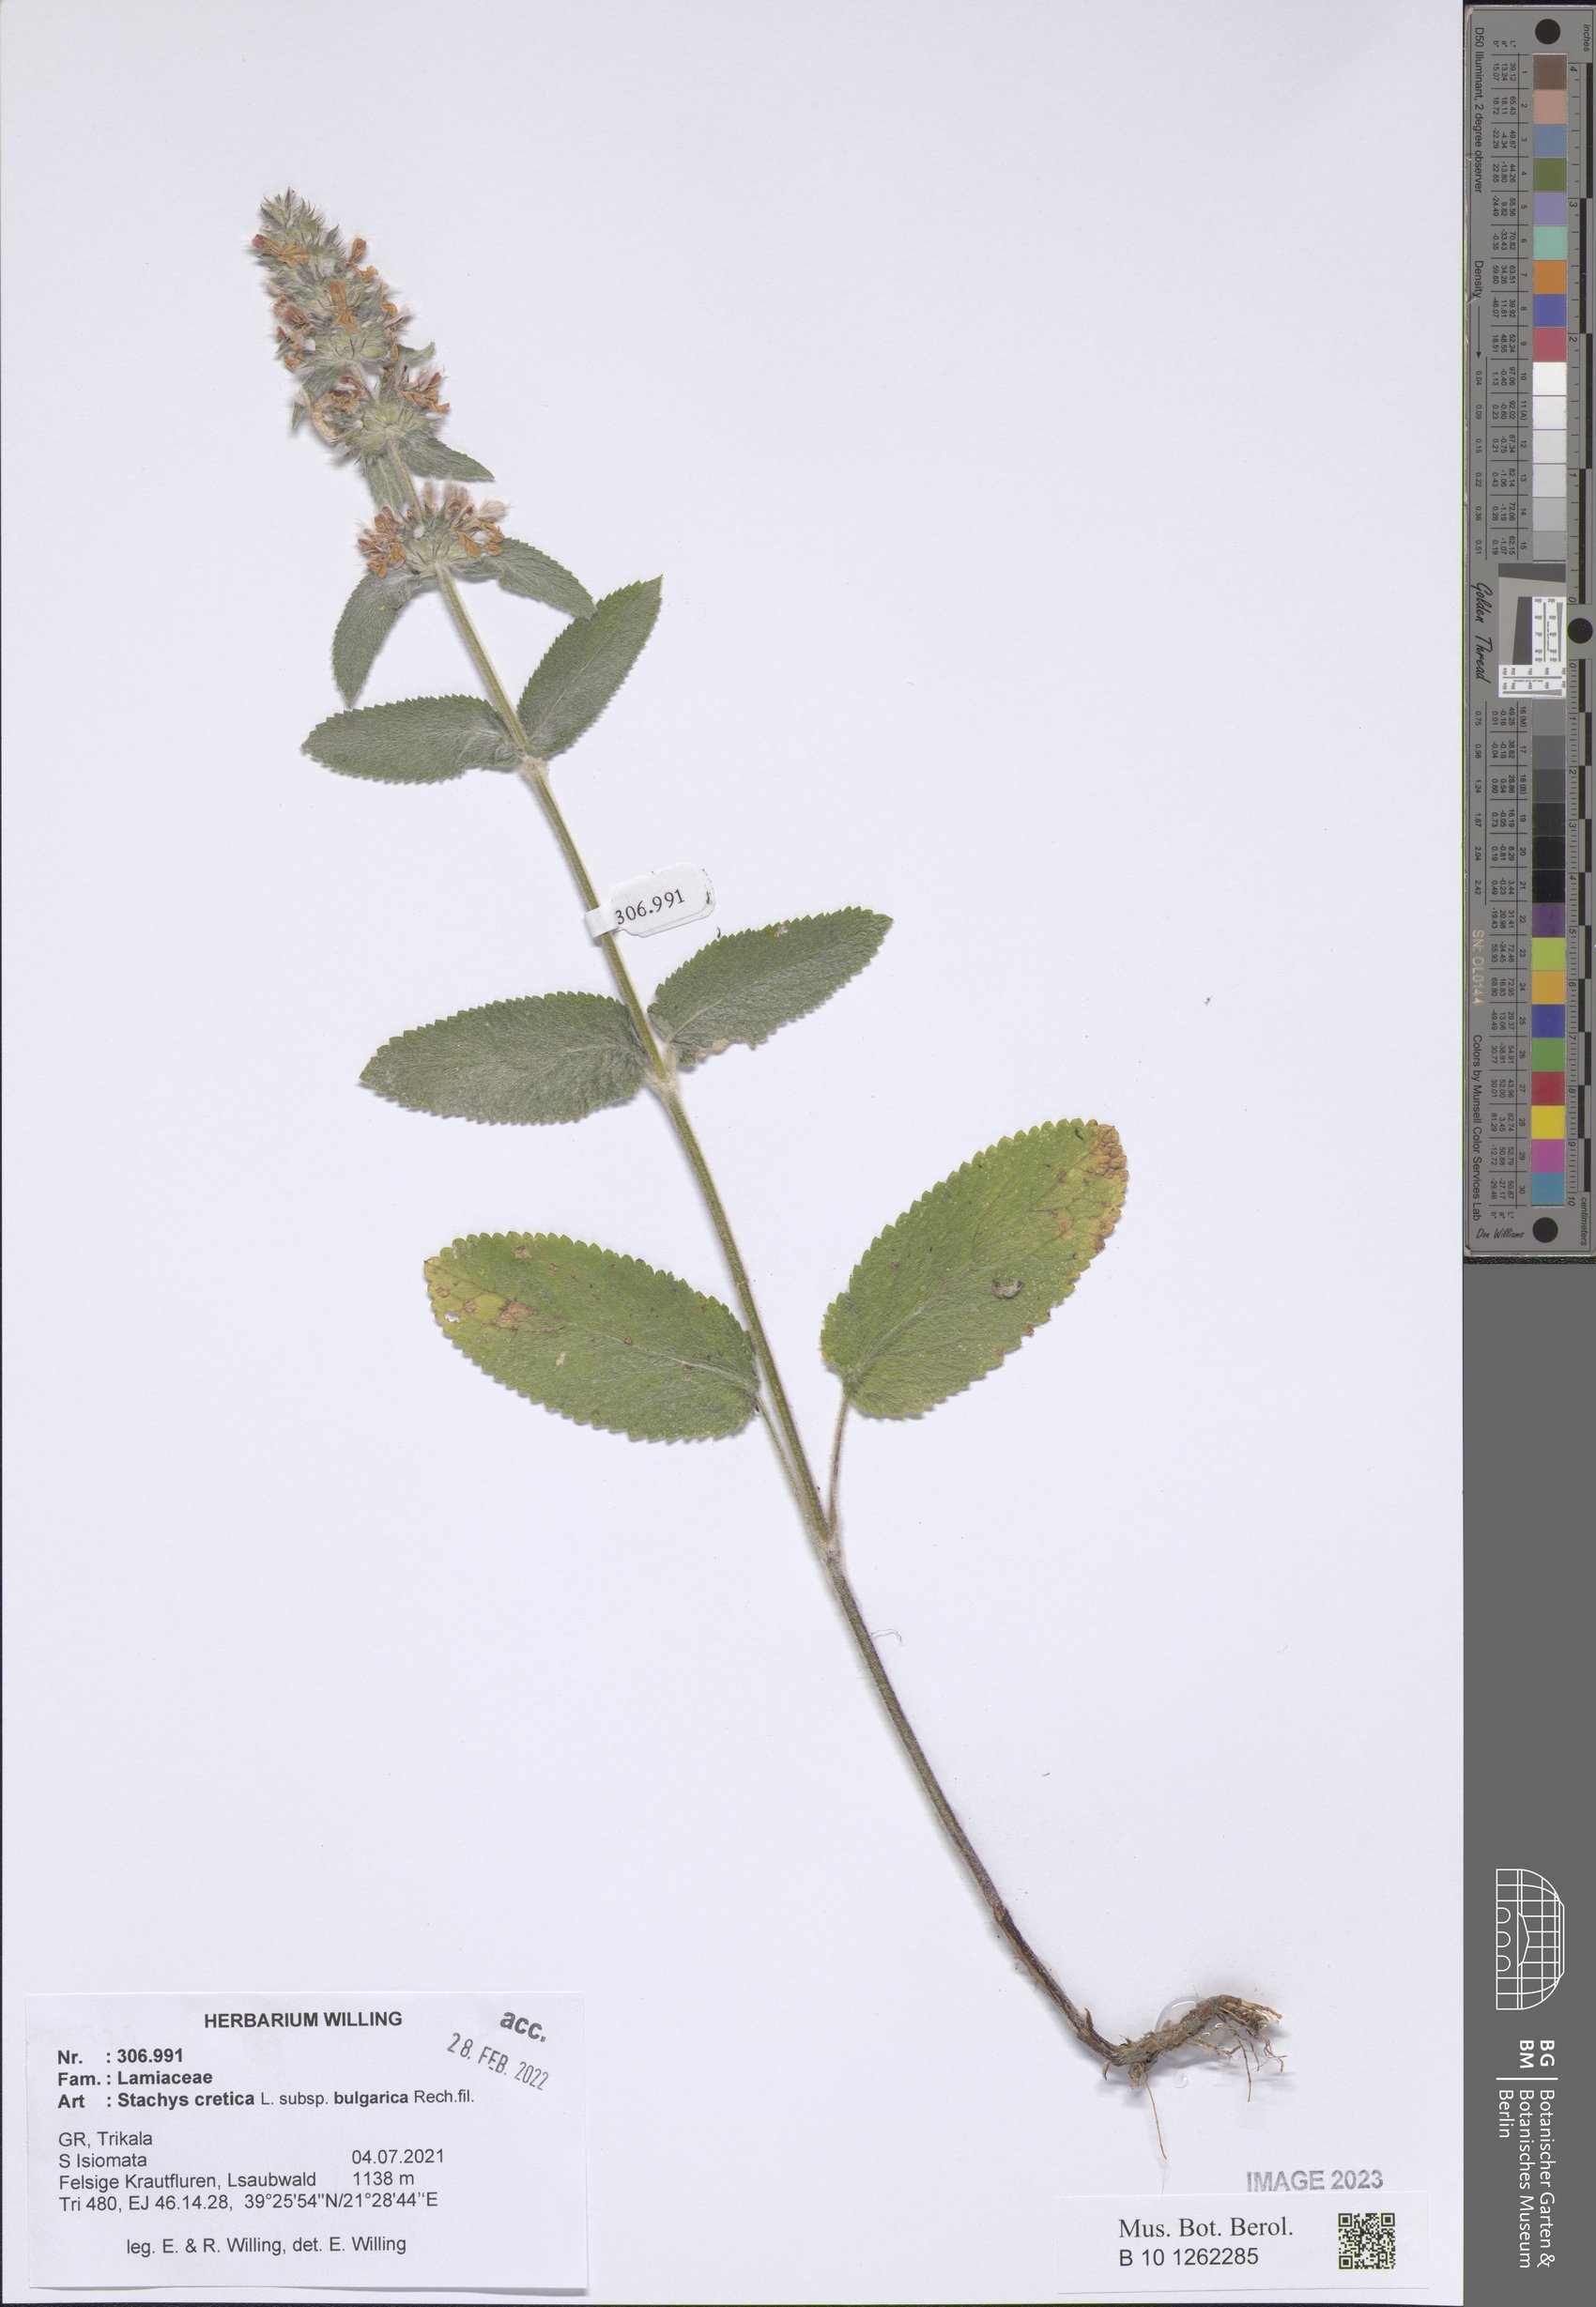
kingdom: Plantae
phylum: Tracheophyta
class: Magnoliopsida
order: Lamiales
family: Lamiaceae
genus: Stachys
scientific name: Stachys cretica
